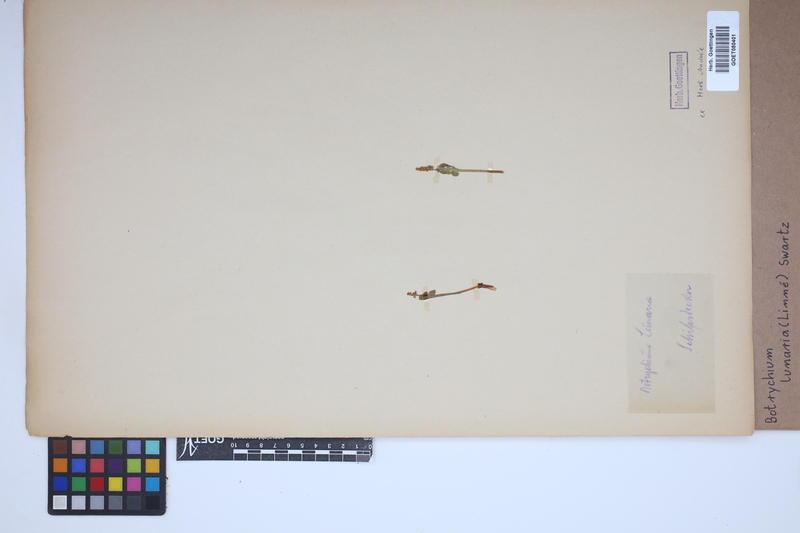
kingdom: Plantae
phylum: Tracheophyta
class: Polypodiopsida
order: Ophioglossales
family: Ophioglossaceae
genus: Botrychium
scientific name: Botrychium lunaria
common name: Moonwort
